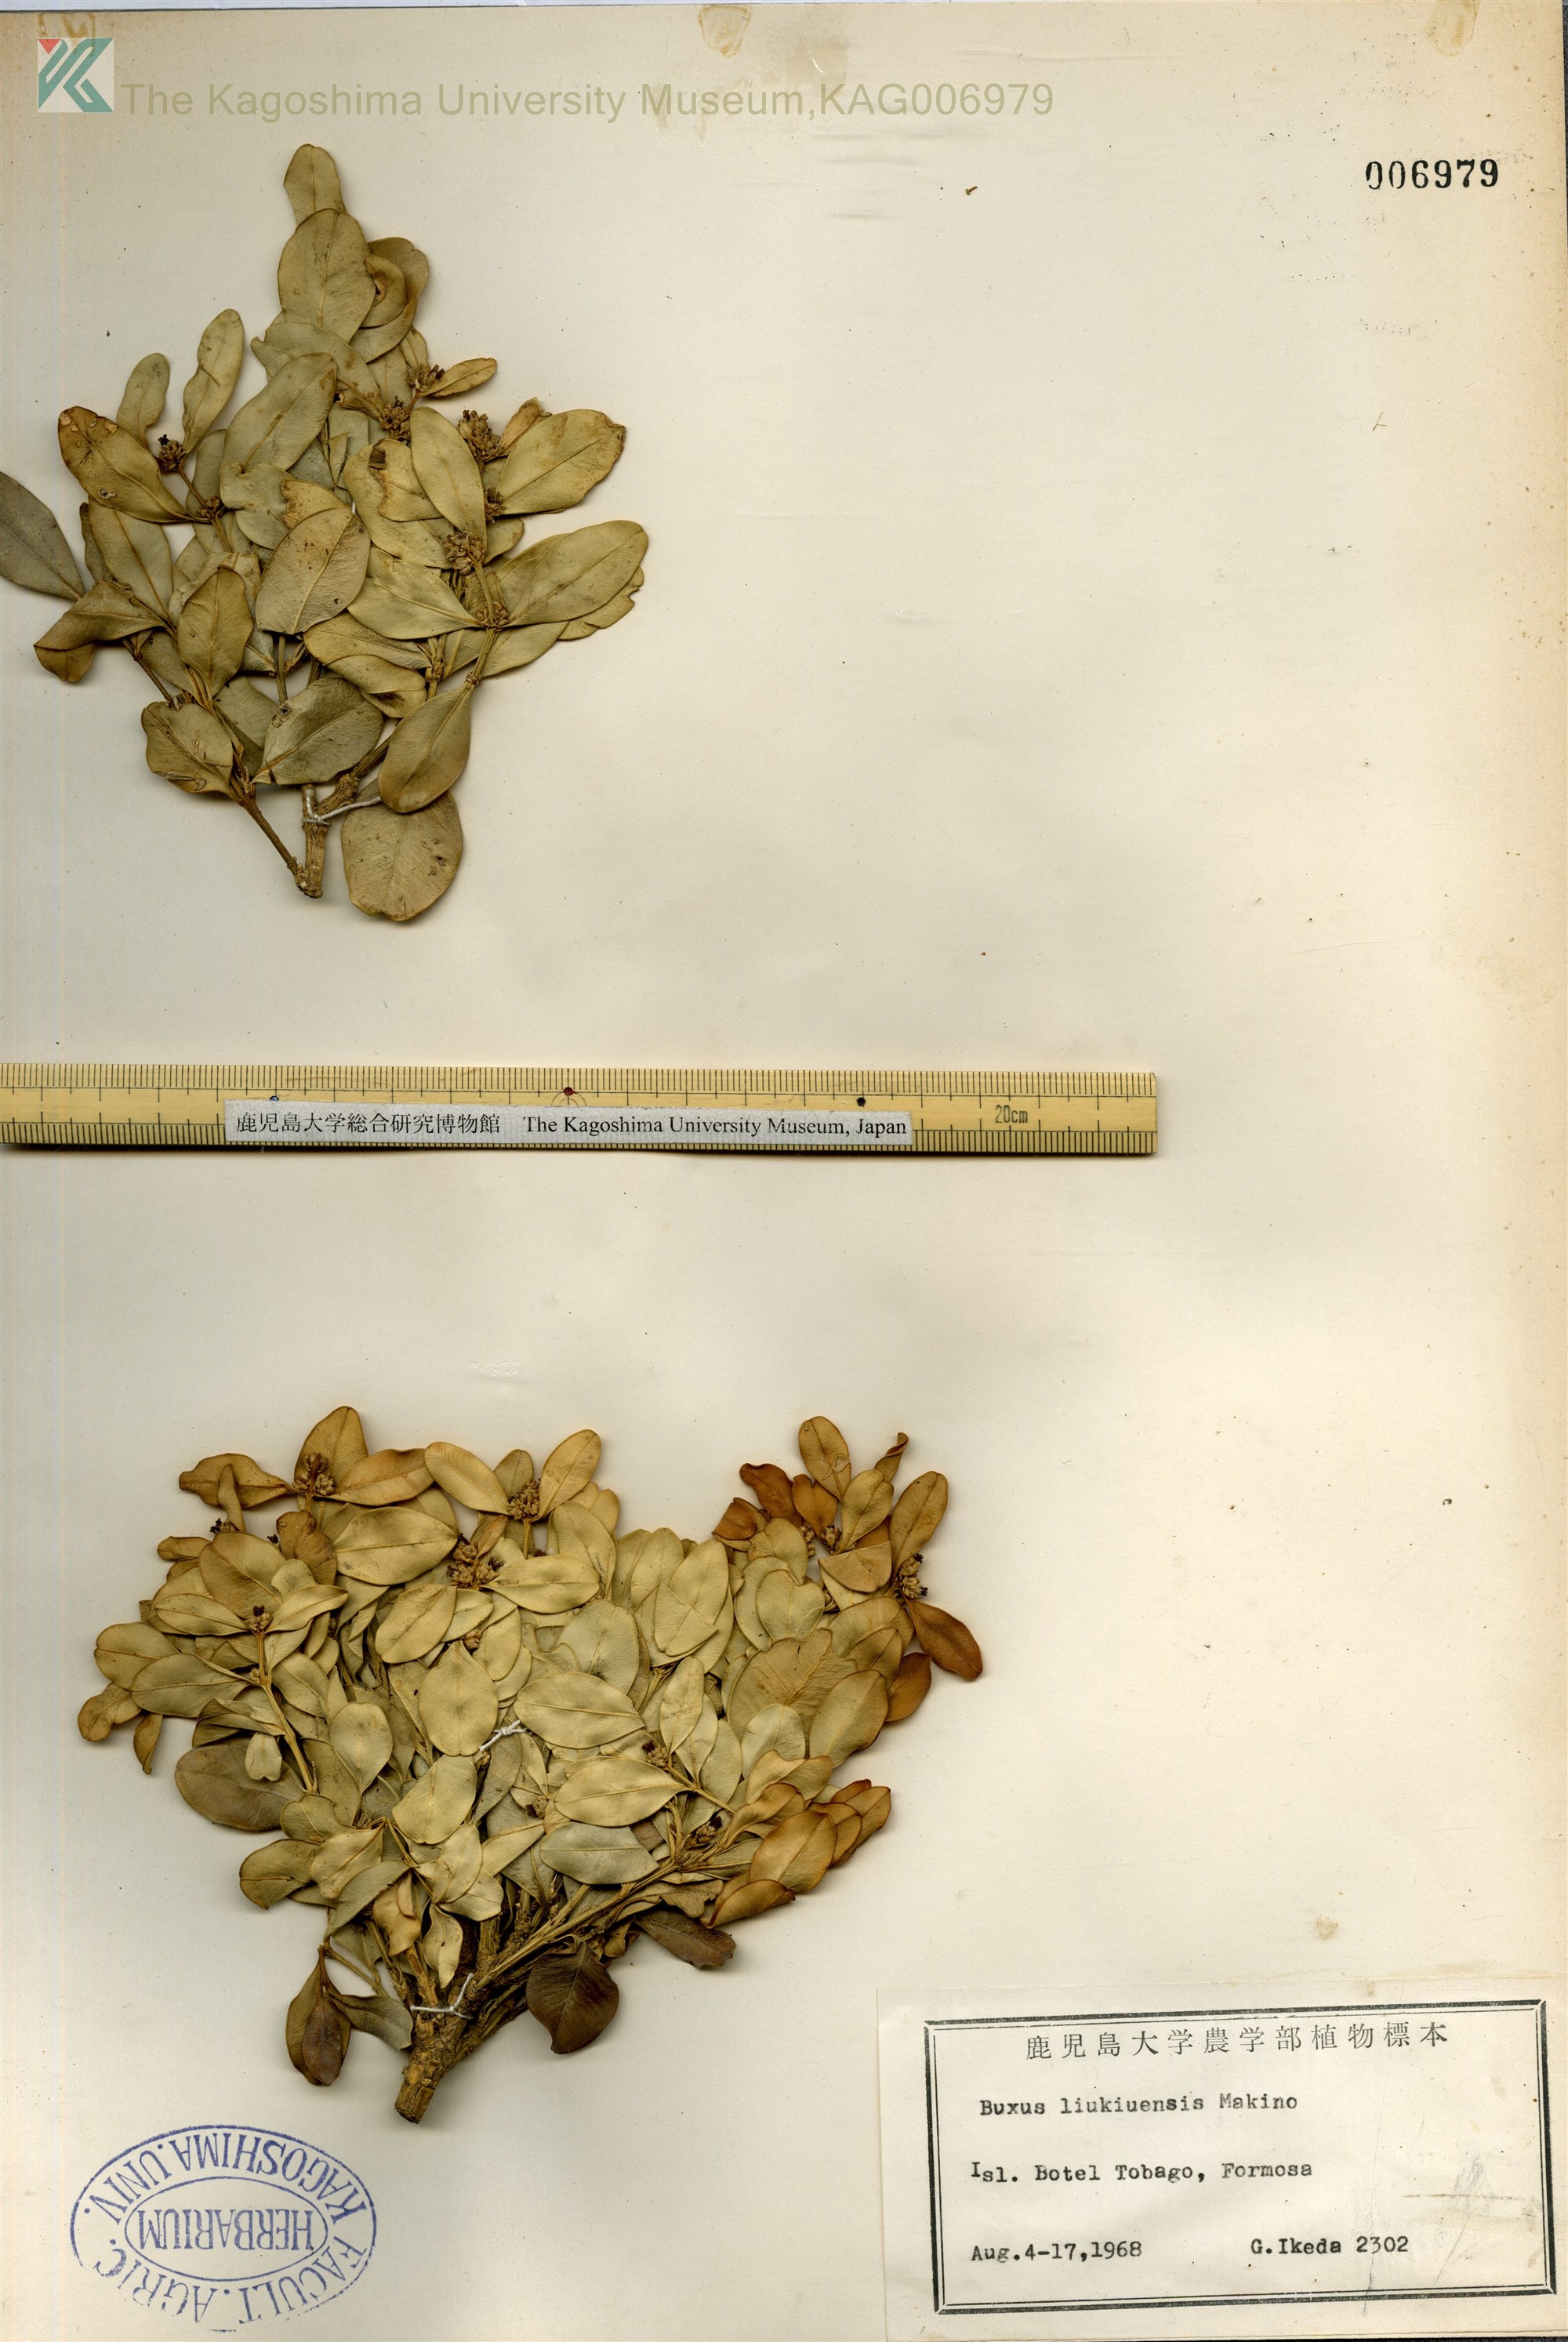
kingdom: Plantae
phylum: Tracheophyta
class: Magnoliopsida
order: Buxales
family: Buxaceae
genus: Buxus
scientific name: Buxus liukiuensis
